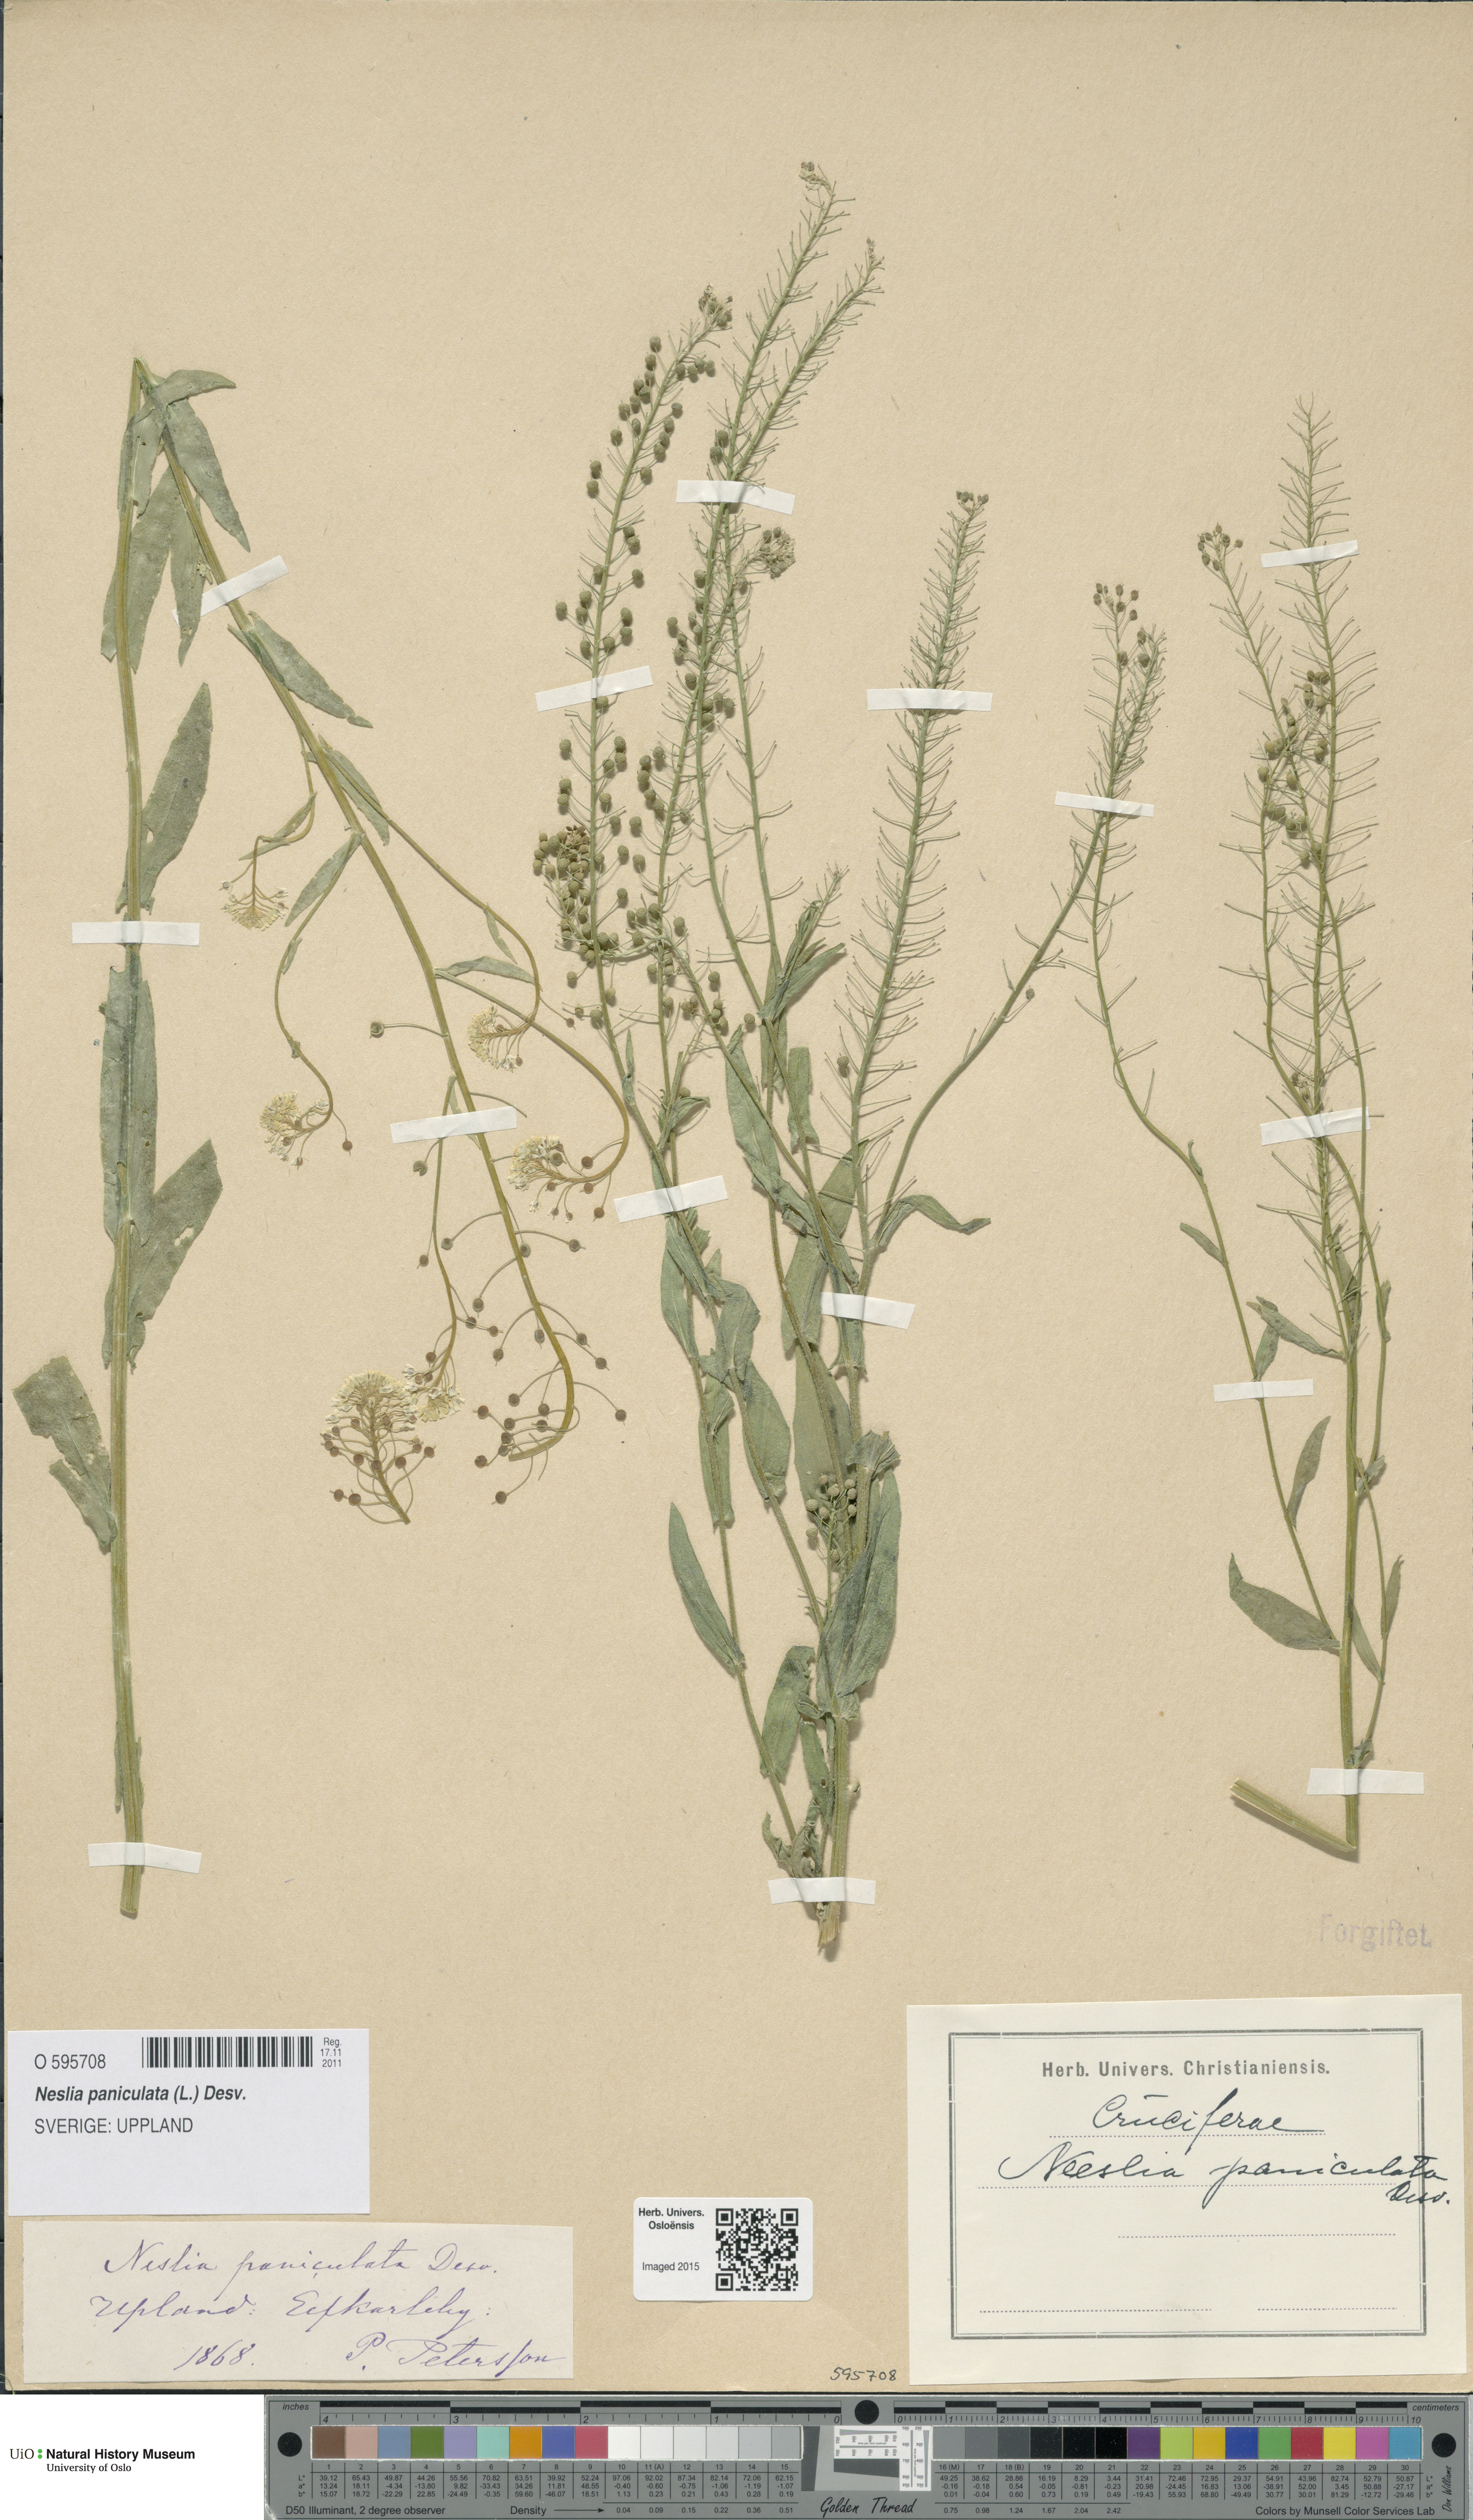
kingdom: Plantae
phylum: Tracheophyta
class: Magnoliopsida
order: Brassicales
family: Brassicaceae
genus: Neslia
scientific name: Neslia paniculata
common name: Ball mustard
